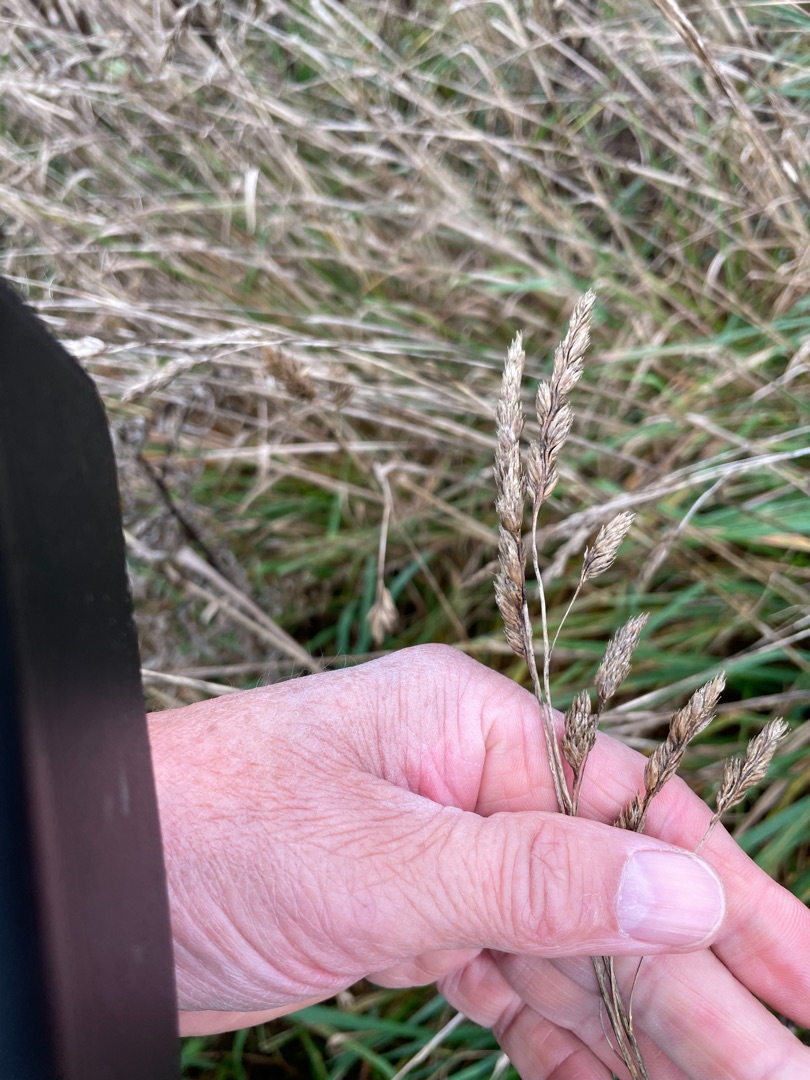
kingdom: Plantae
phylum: Tracheophyta
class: Liliopsida
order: Poales
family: Poaceae
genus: Dactylis
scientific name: Dactylis glomerata
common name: Almindelig hundegræs
